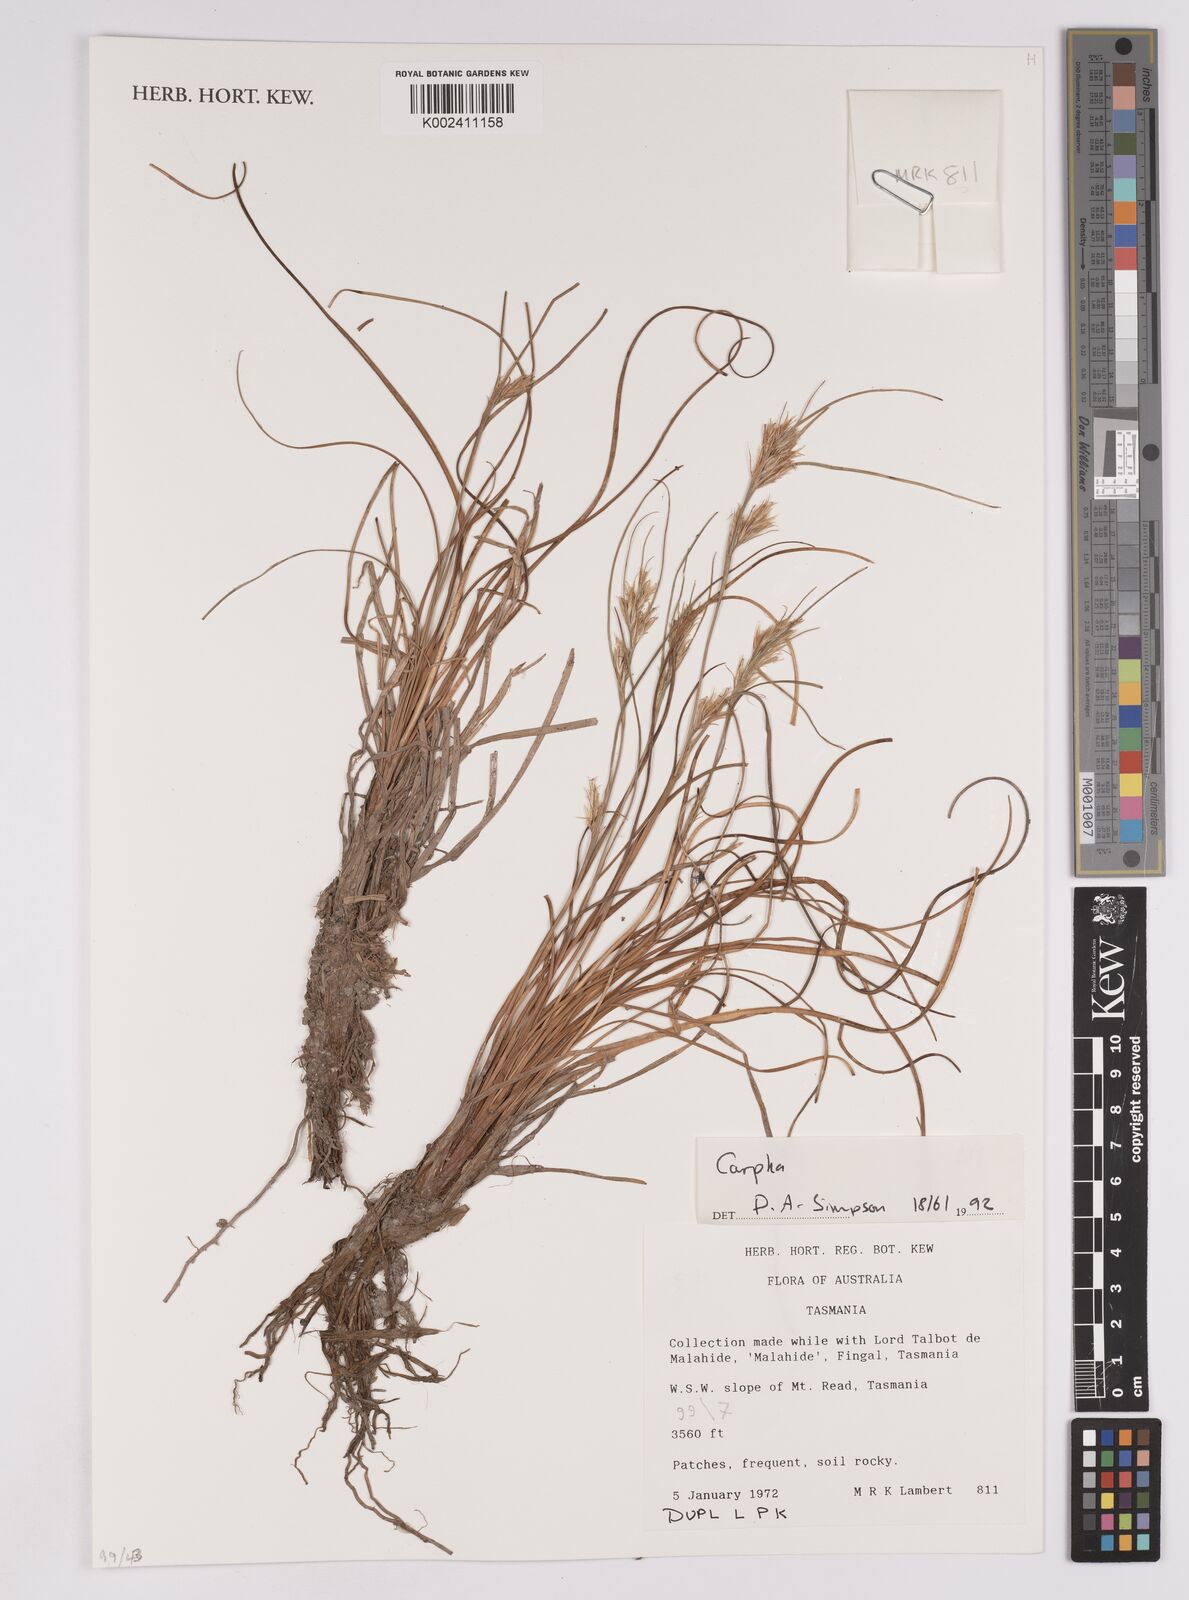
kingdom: Plantae
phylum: Tracheophyta
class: Liliopsida
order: Poales
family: Cyperaceae
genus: Carpha
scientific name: Carpha
